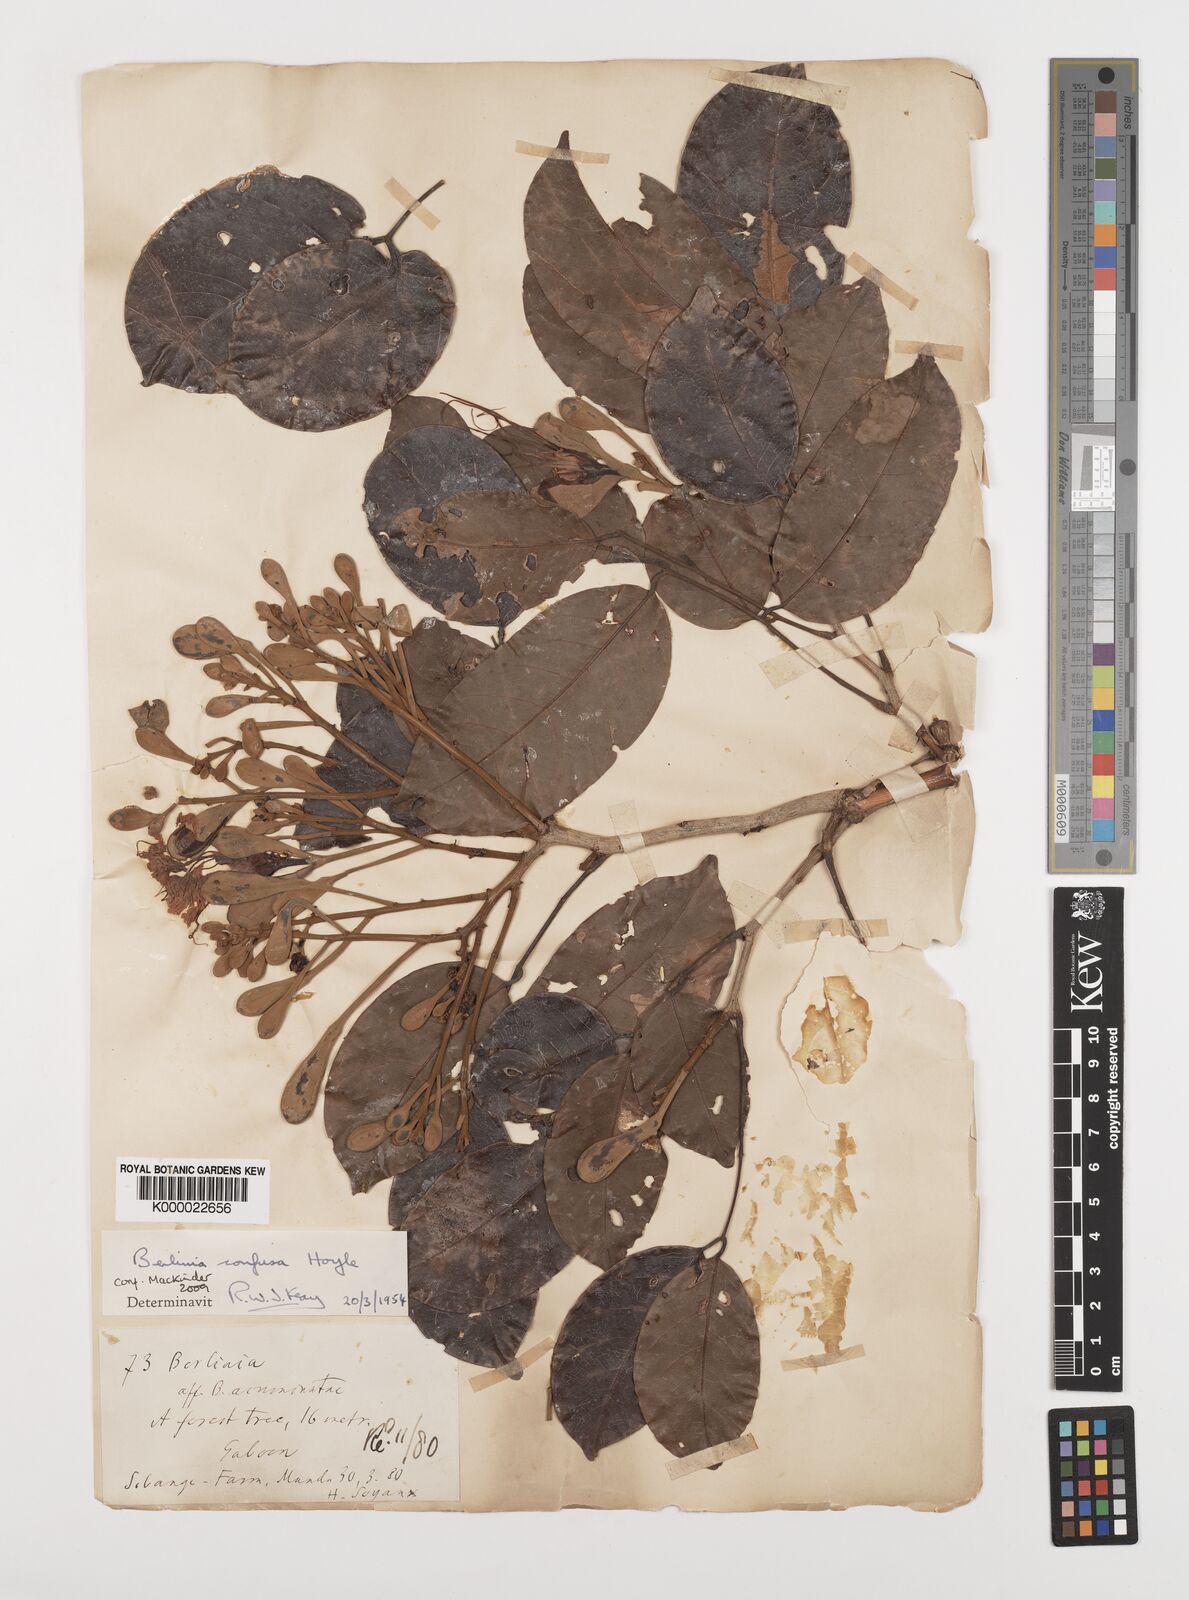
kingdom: Plantae
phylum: Tracheophyta
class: Magnoliopsida
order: Fabales
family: Fabaceae
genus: Berlinia
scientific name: Berlinia confusa
